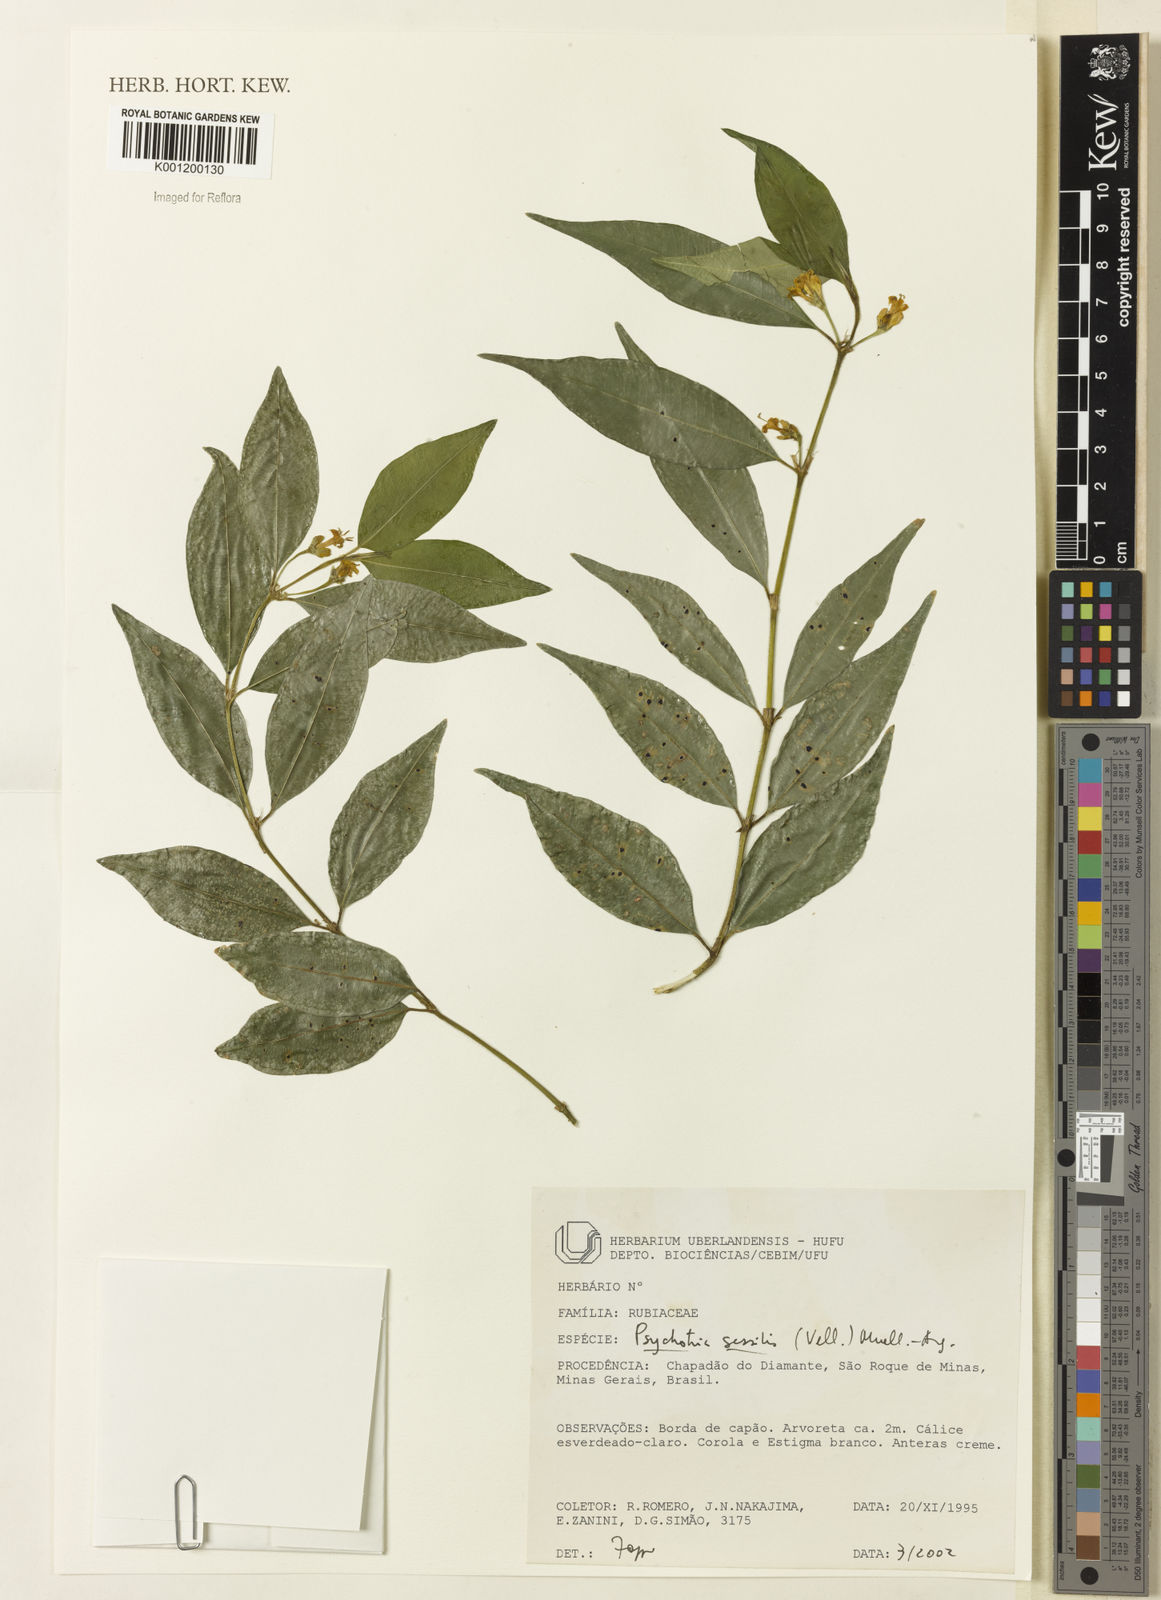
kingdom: Plantae
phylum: Tracheophyta
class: Magnoliopsida
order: Gentianales
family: Rubiaceae
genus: Rudgea
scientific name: Rudgea sessilis
